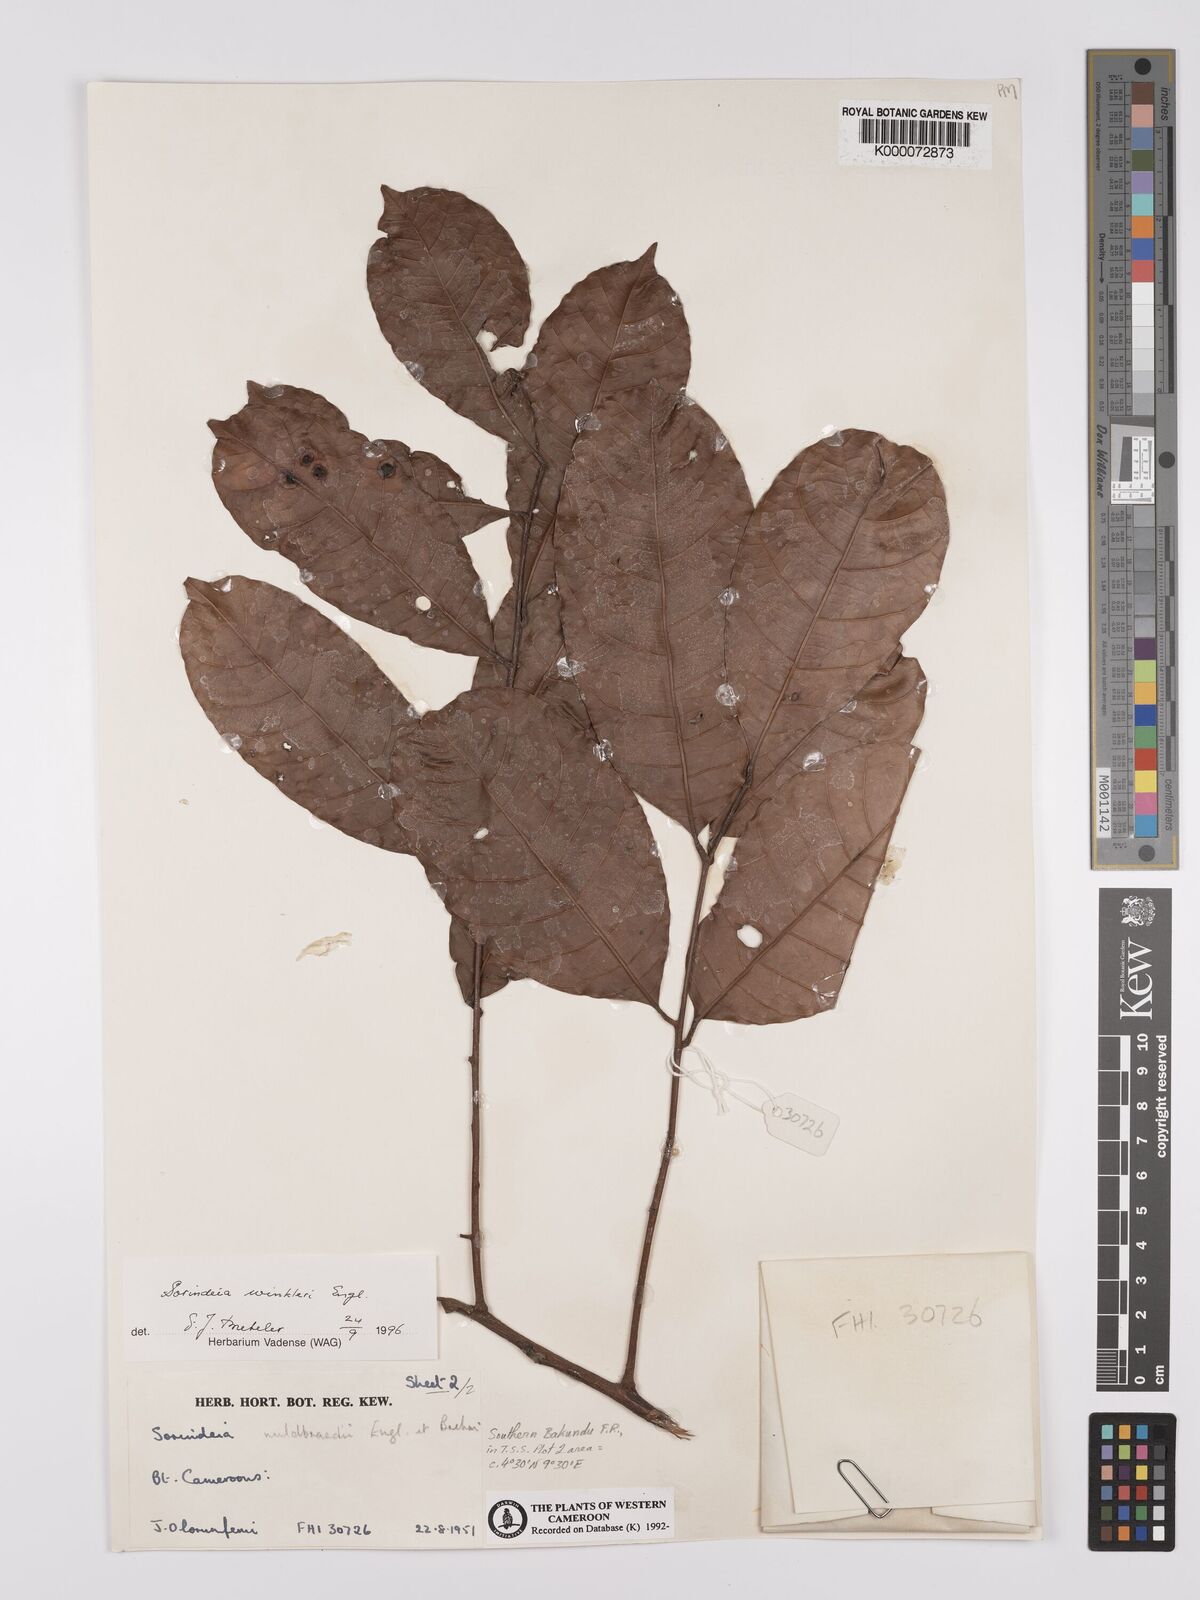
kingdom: Plantae
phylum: Tracheophyta
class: Magnoliopsida
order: Sapindales
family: Anacardiaceae
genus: Sorindeia
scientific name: Sorindeia winkleri
